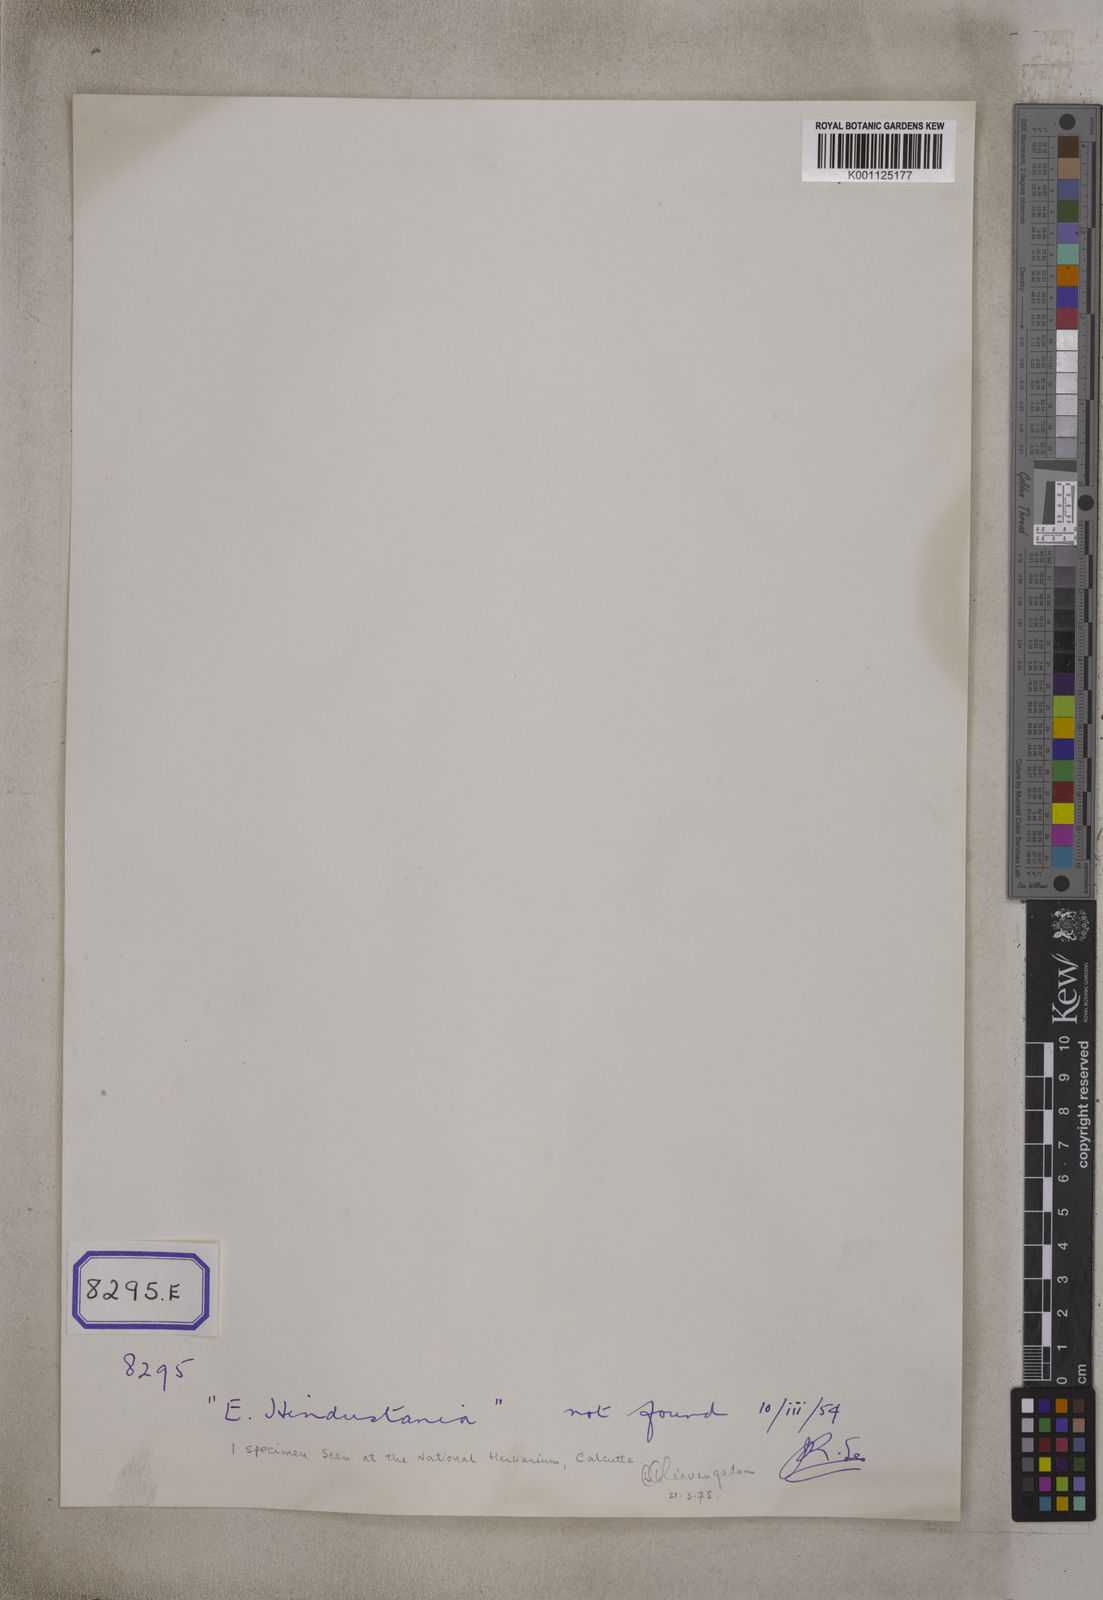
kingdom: Plantae
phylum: Tracheophyta
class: Magnoliopsida
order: Gentianales
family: Rubiaceae
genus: Gardenia
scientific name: Gardenia
